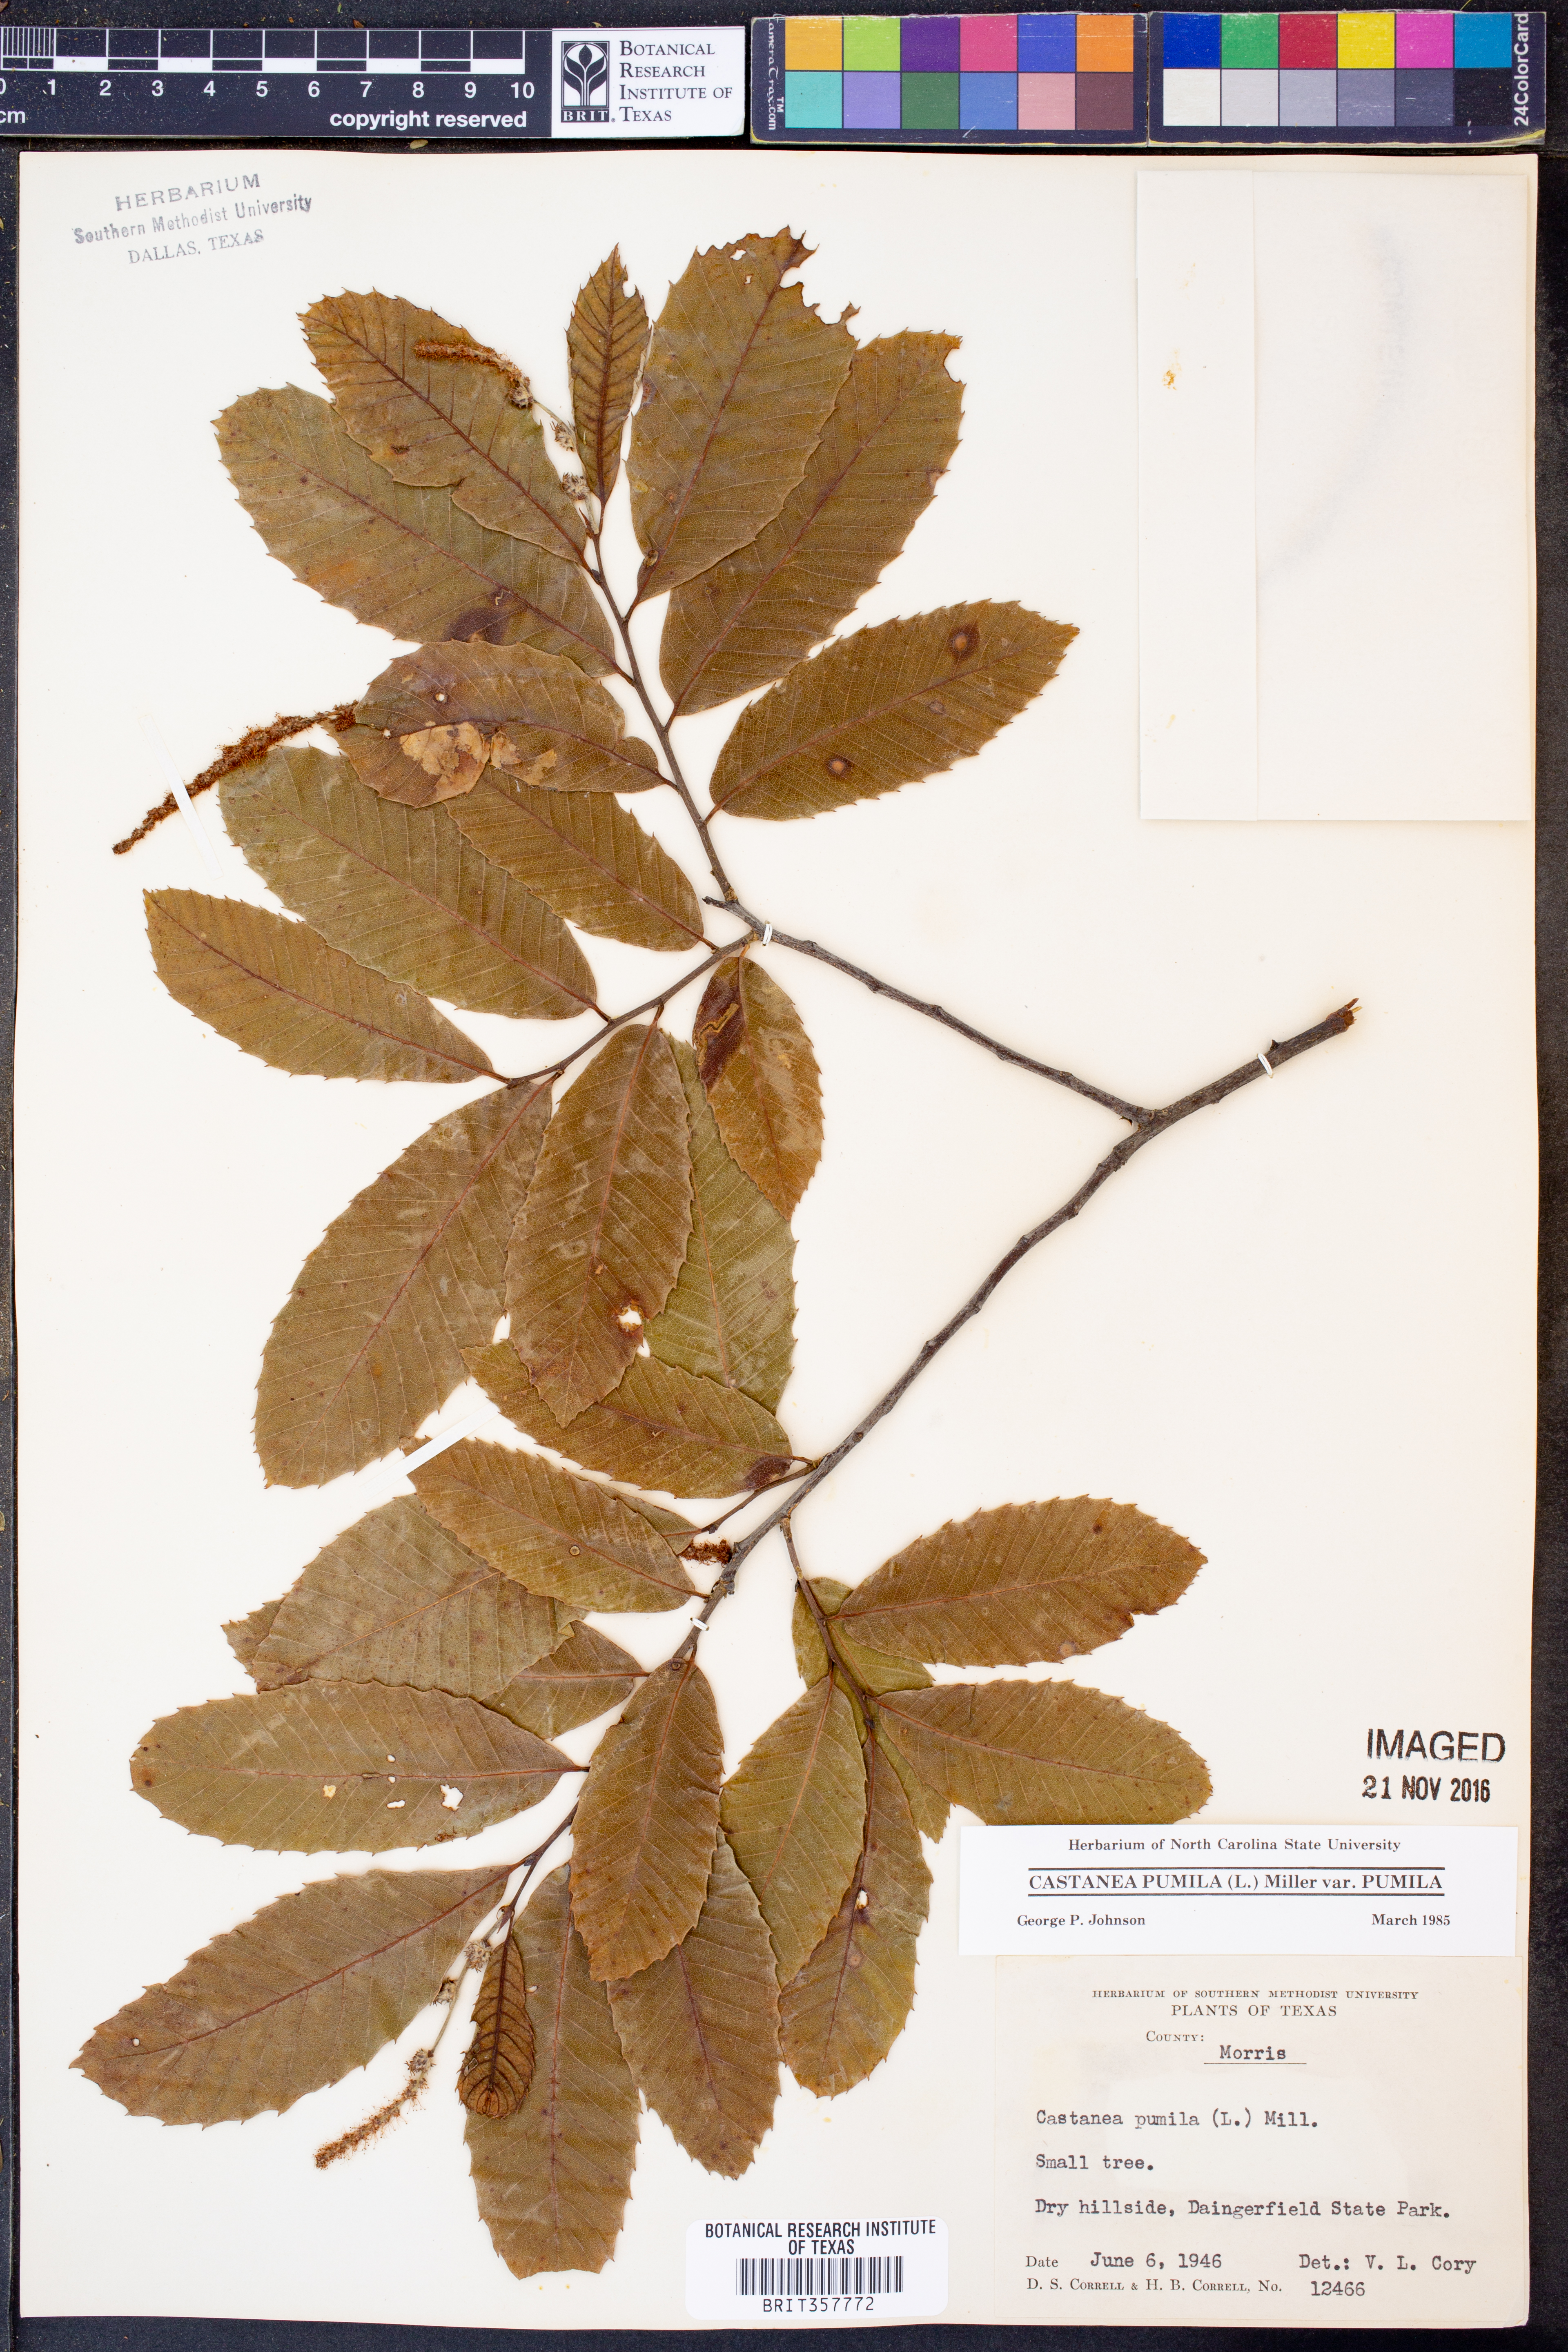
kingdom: Plantae
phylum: Tracheophyta
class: Magnoliopsida
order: Fagales
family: Fagaceae
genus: Castanea
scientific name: Castanea pumila
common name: Chinkapin
